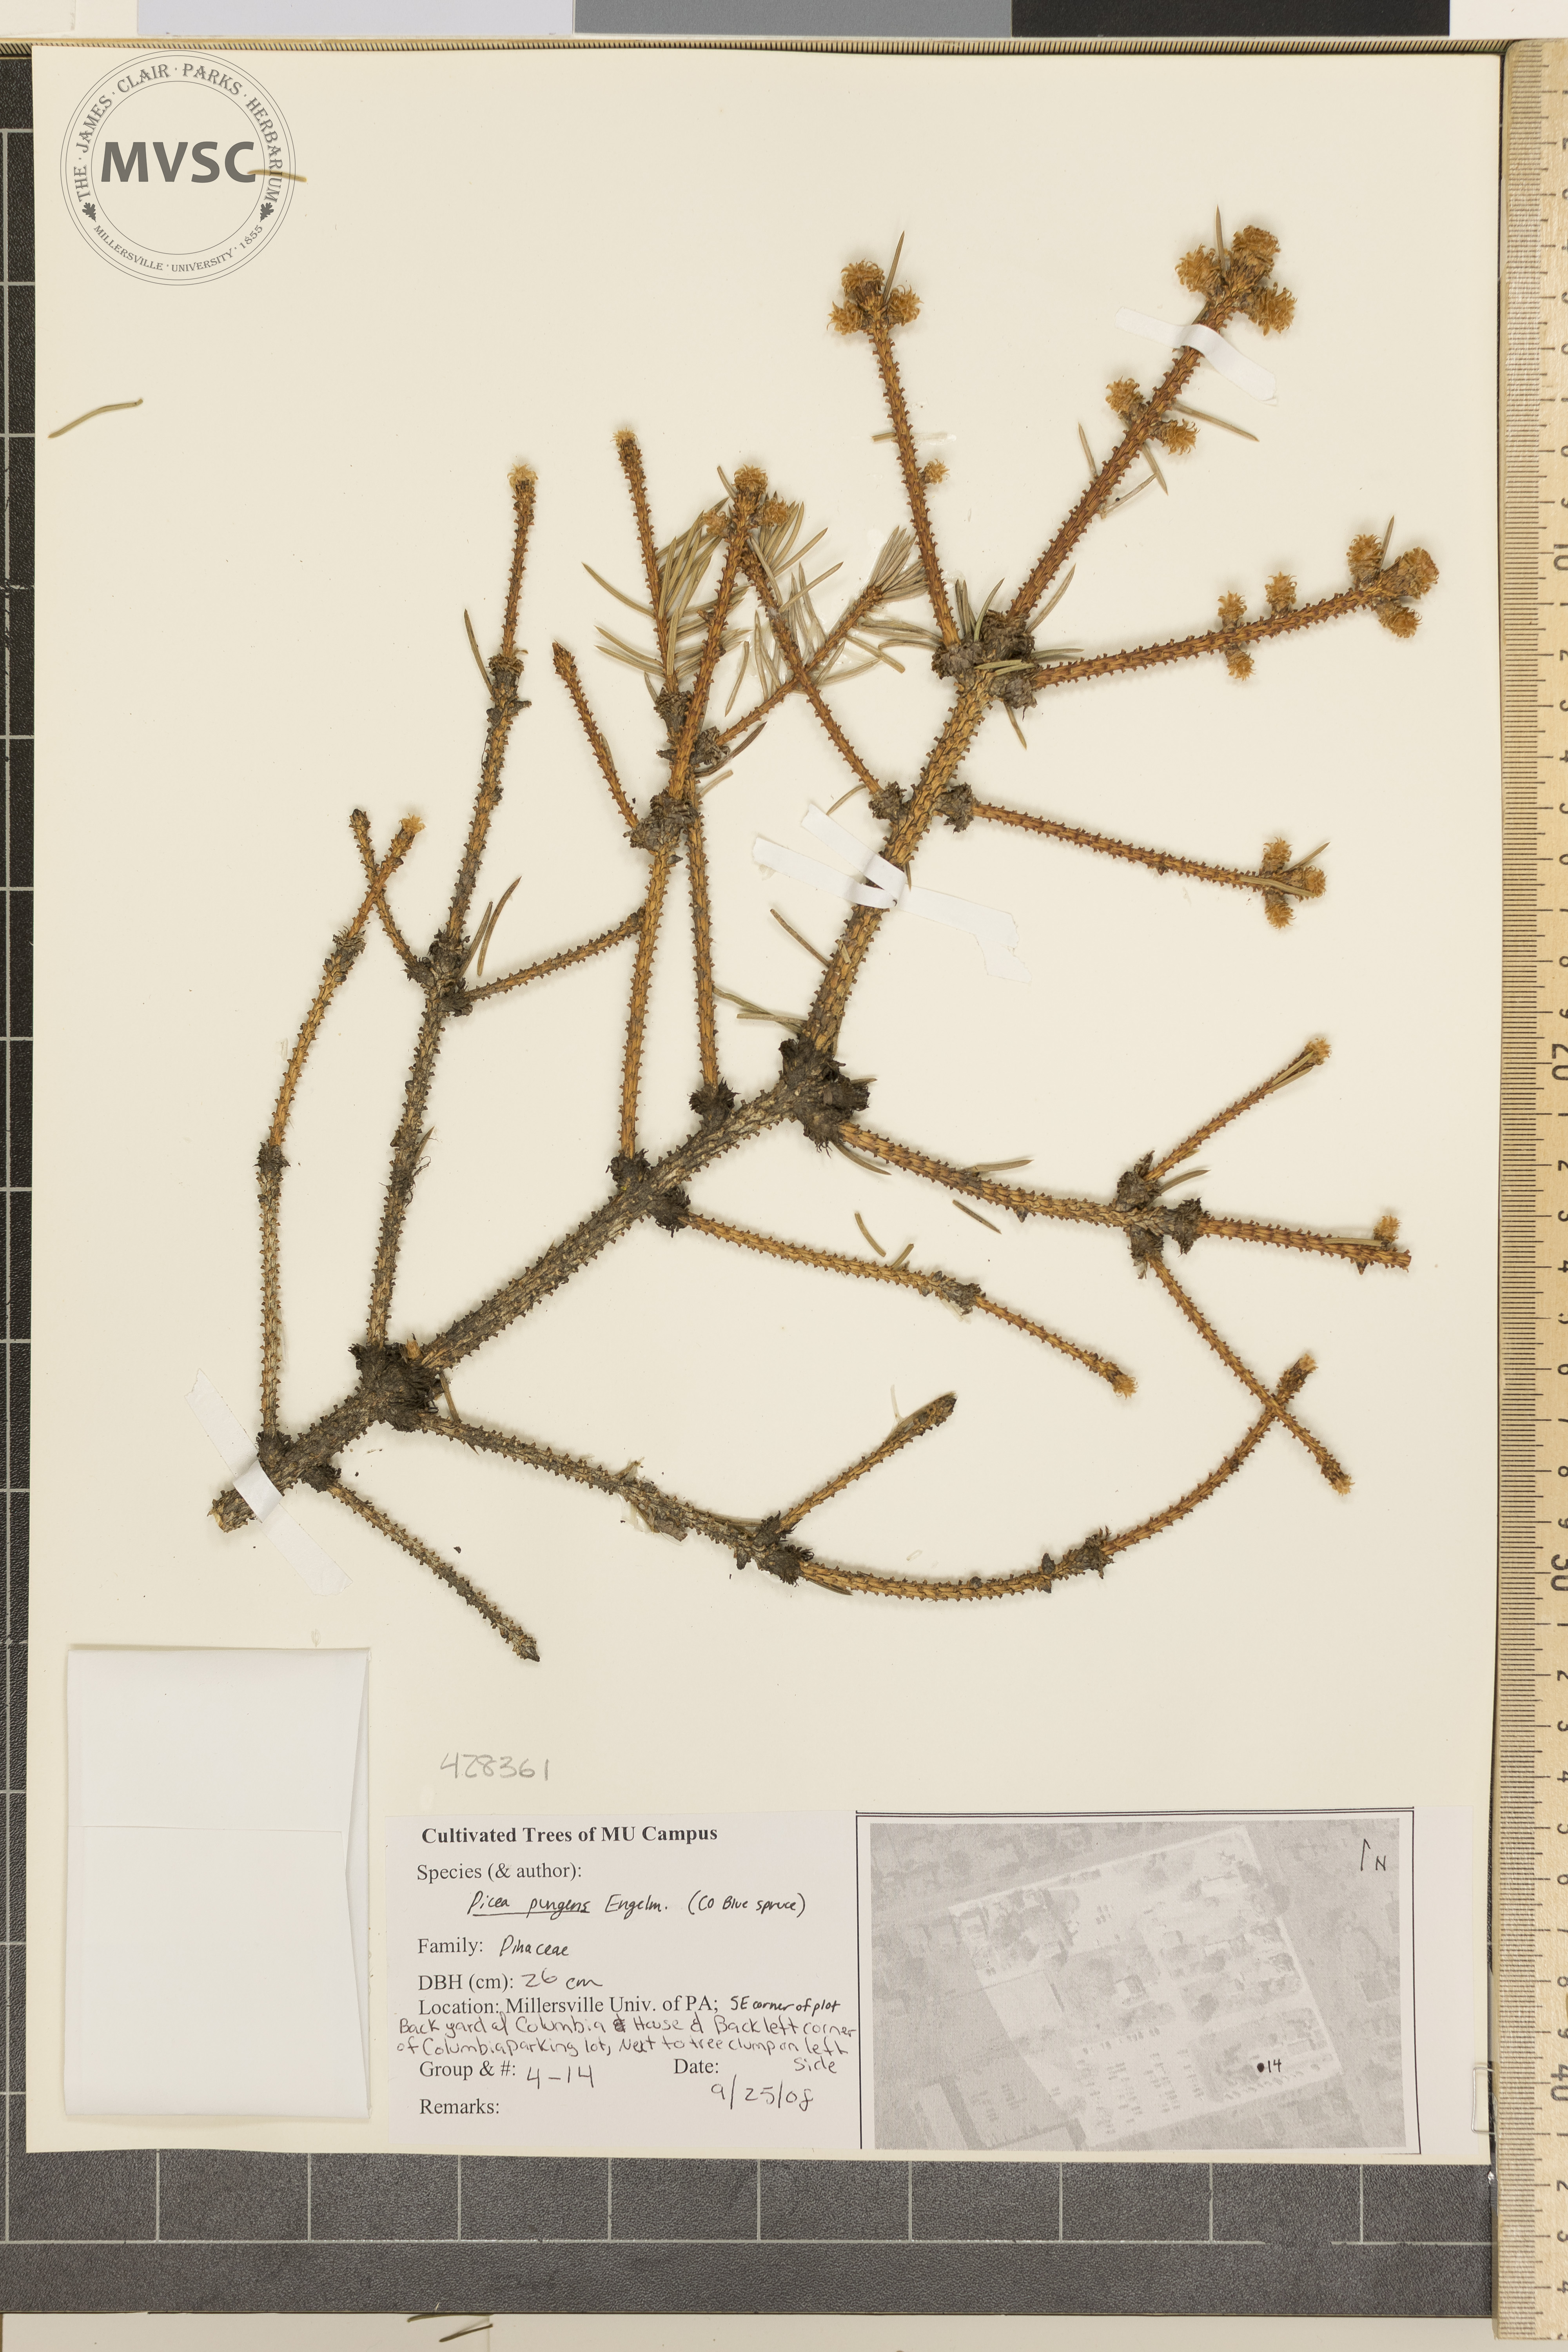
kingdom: Plantae
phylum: Tracheophyta
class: Pinopsida
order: Pinales
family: Pinaceae
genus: Picea
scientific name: Picea pungens
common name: Colorado Blue Spruce
